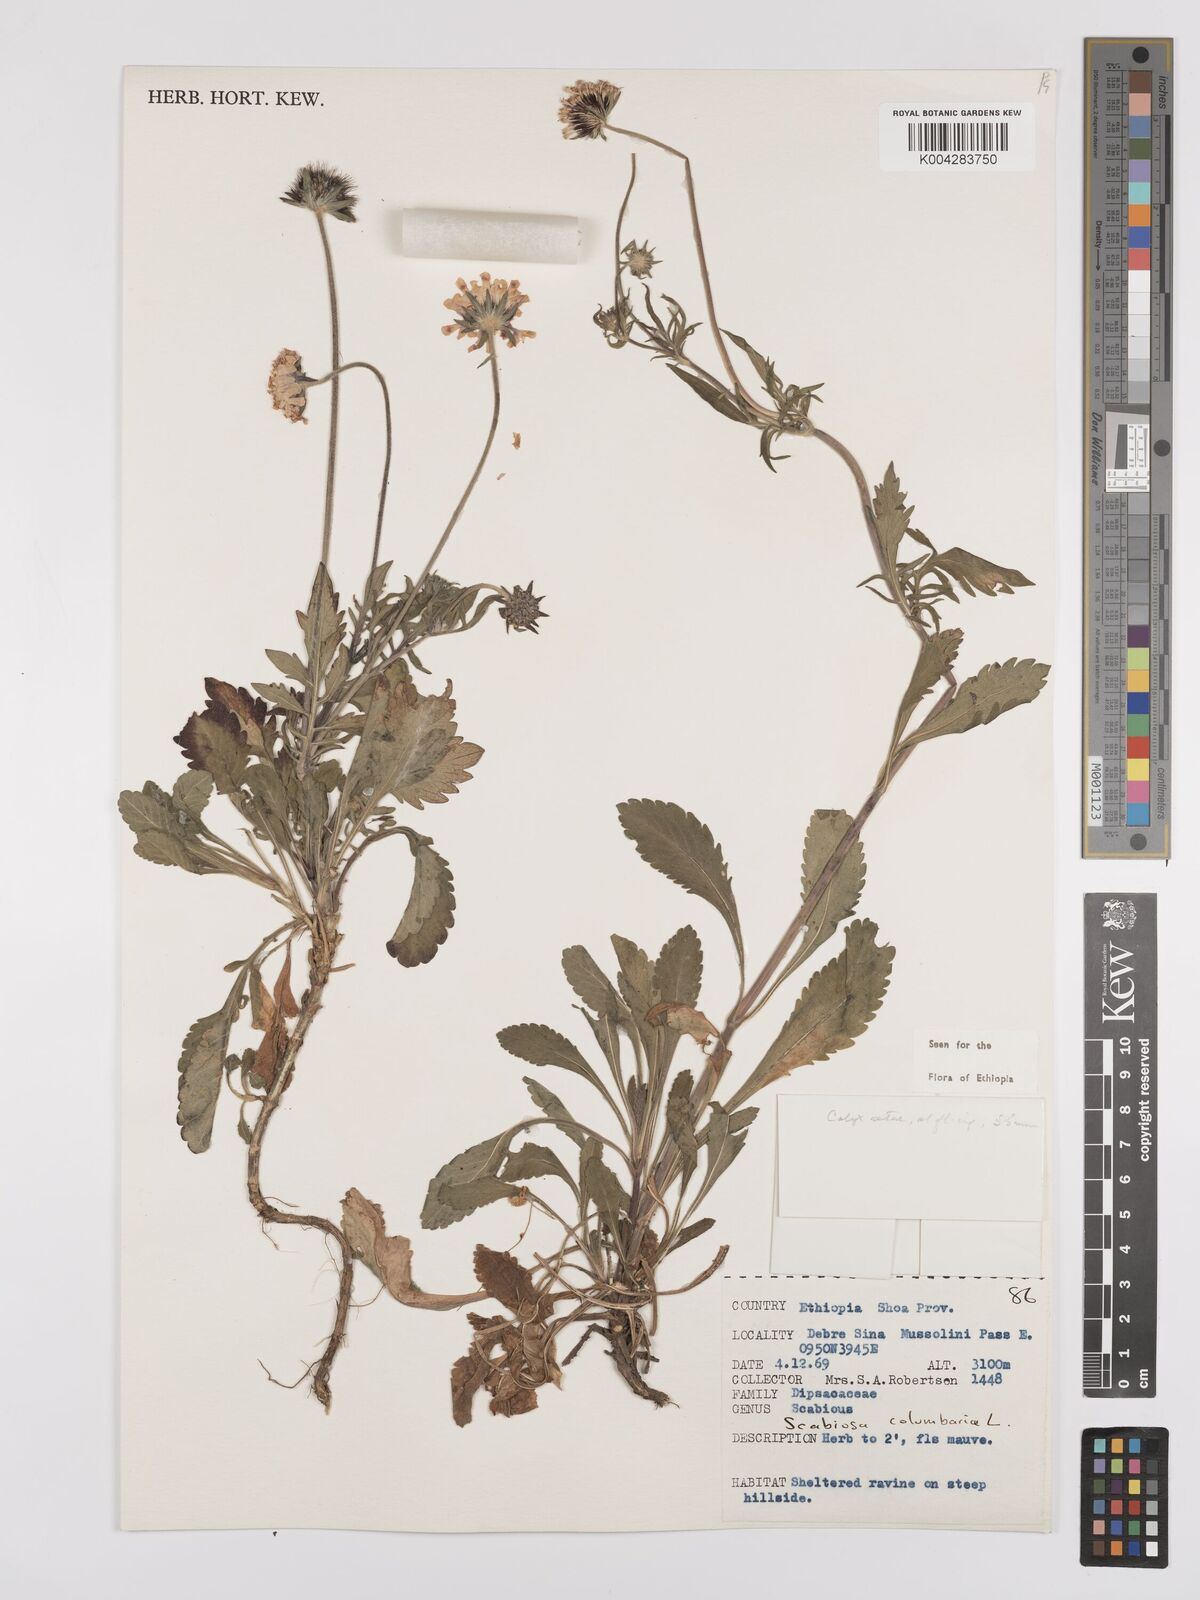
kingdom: Plantae
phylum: Tracheophyta
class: Magnoliopsida
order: Dipsacales
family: Caprifoliaceae
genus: Scabiosa
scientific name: Scabiosa columbaria
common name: Small scabious
